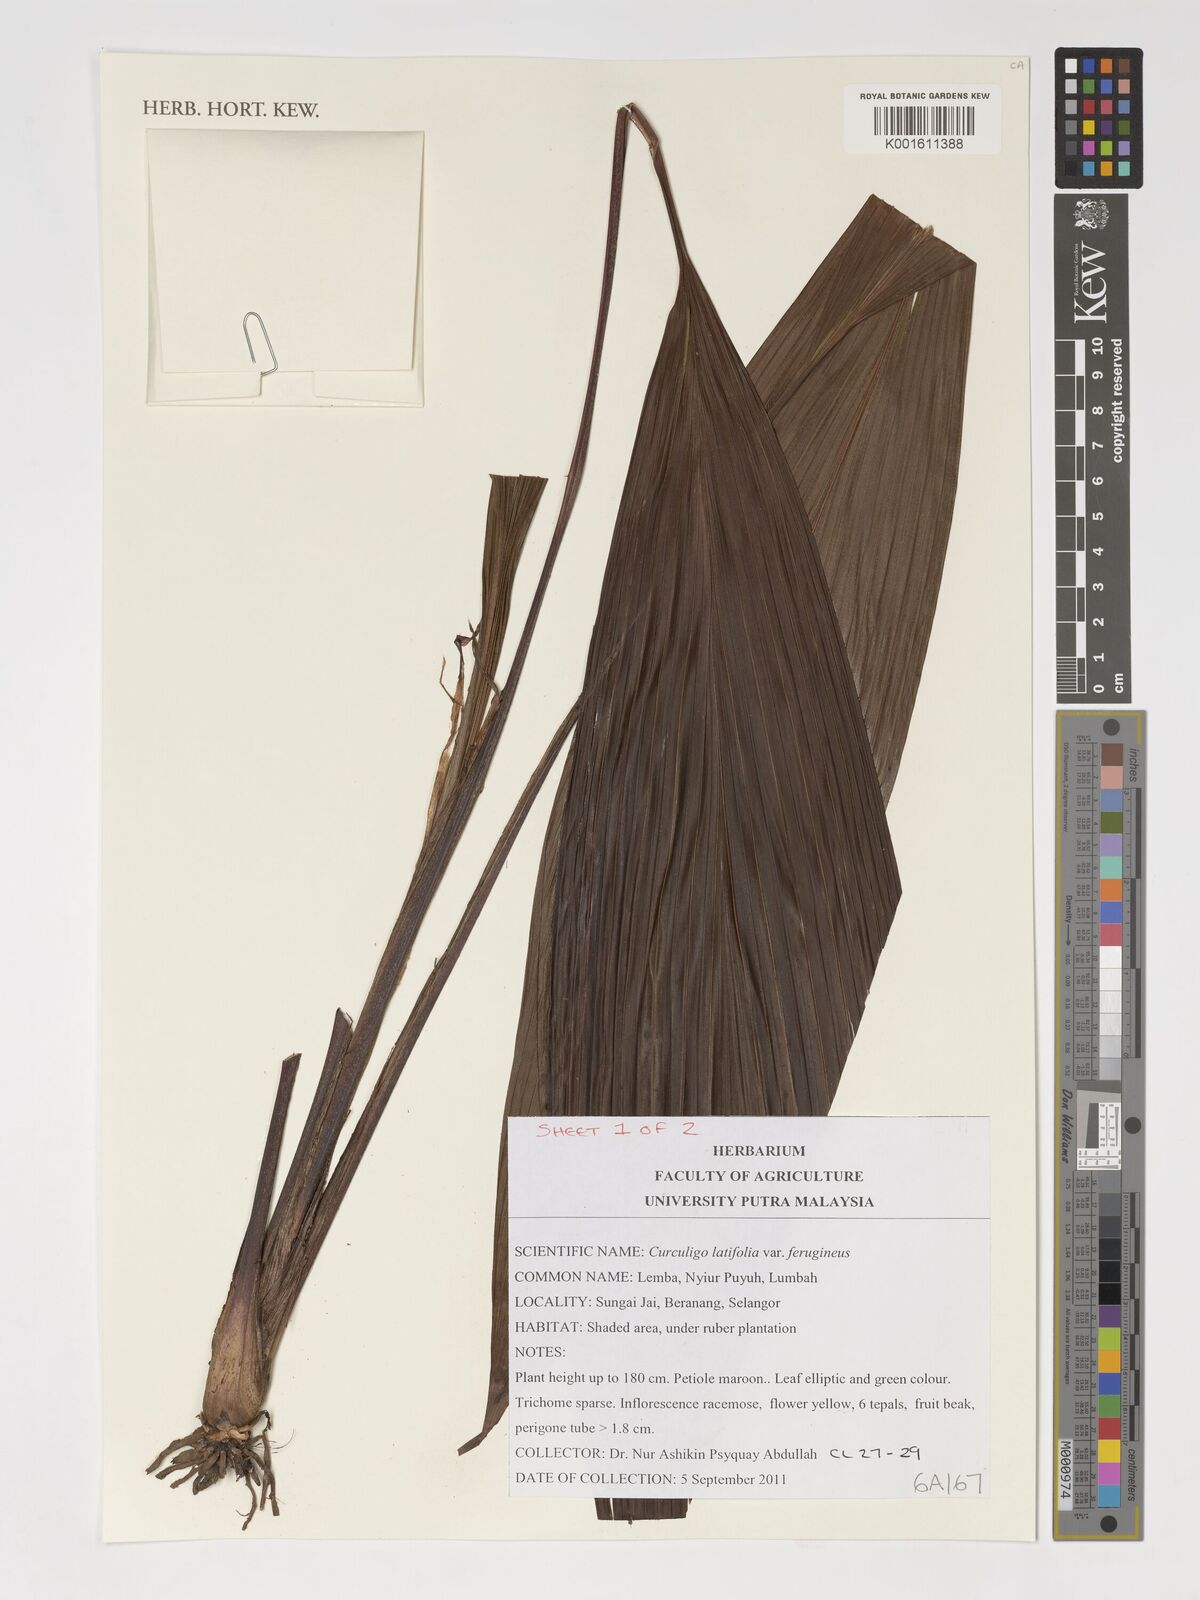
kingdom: Plantae
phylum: Tracheophyta
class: Liliopsida
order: Asparagales
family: Hypoxidaceae
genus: Curculigo
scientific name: Curculigo latifolia
